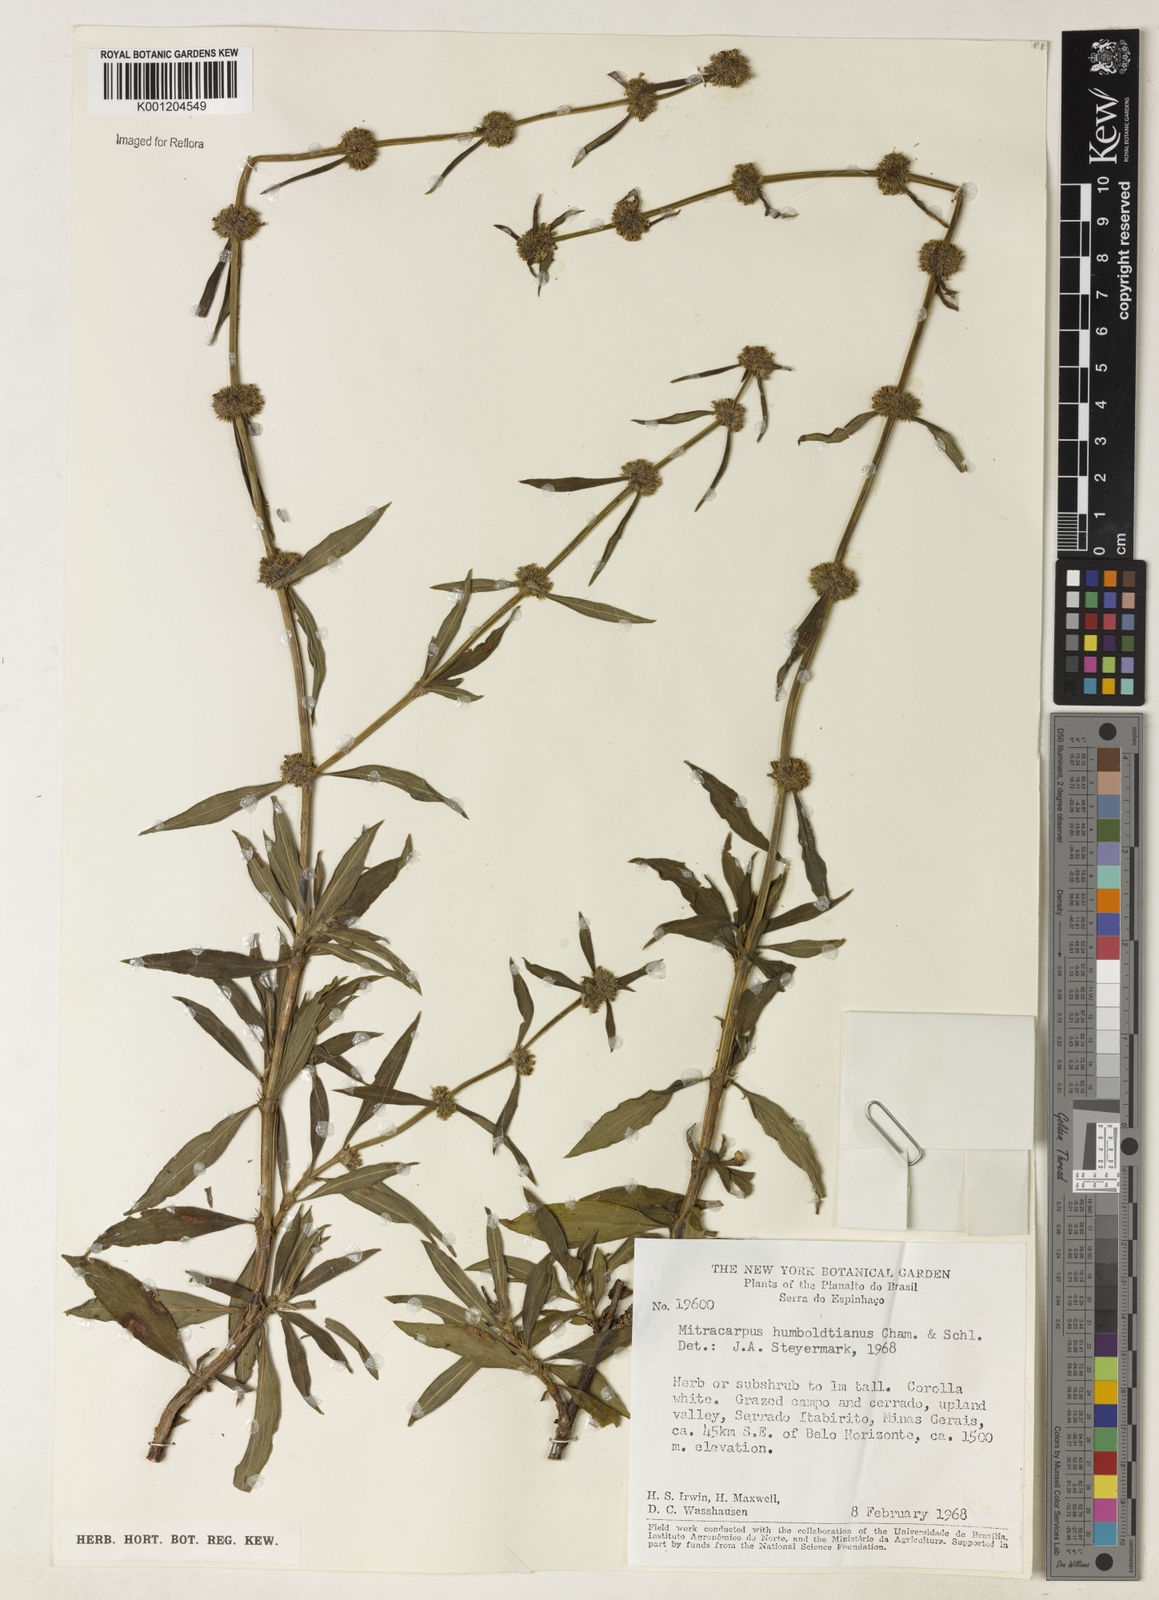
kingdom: Plantae
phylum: Tracheophyta
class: Magnoliopsida
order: Gentianales
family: Rubiaceae
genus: Mitracarpus
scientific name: Mitracarpus
